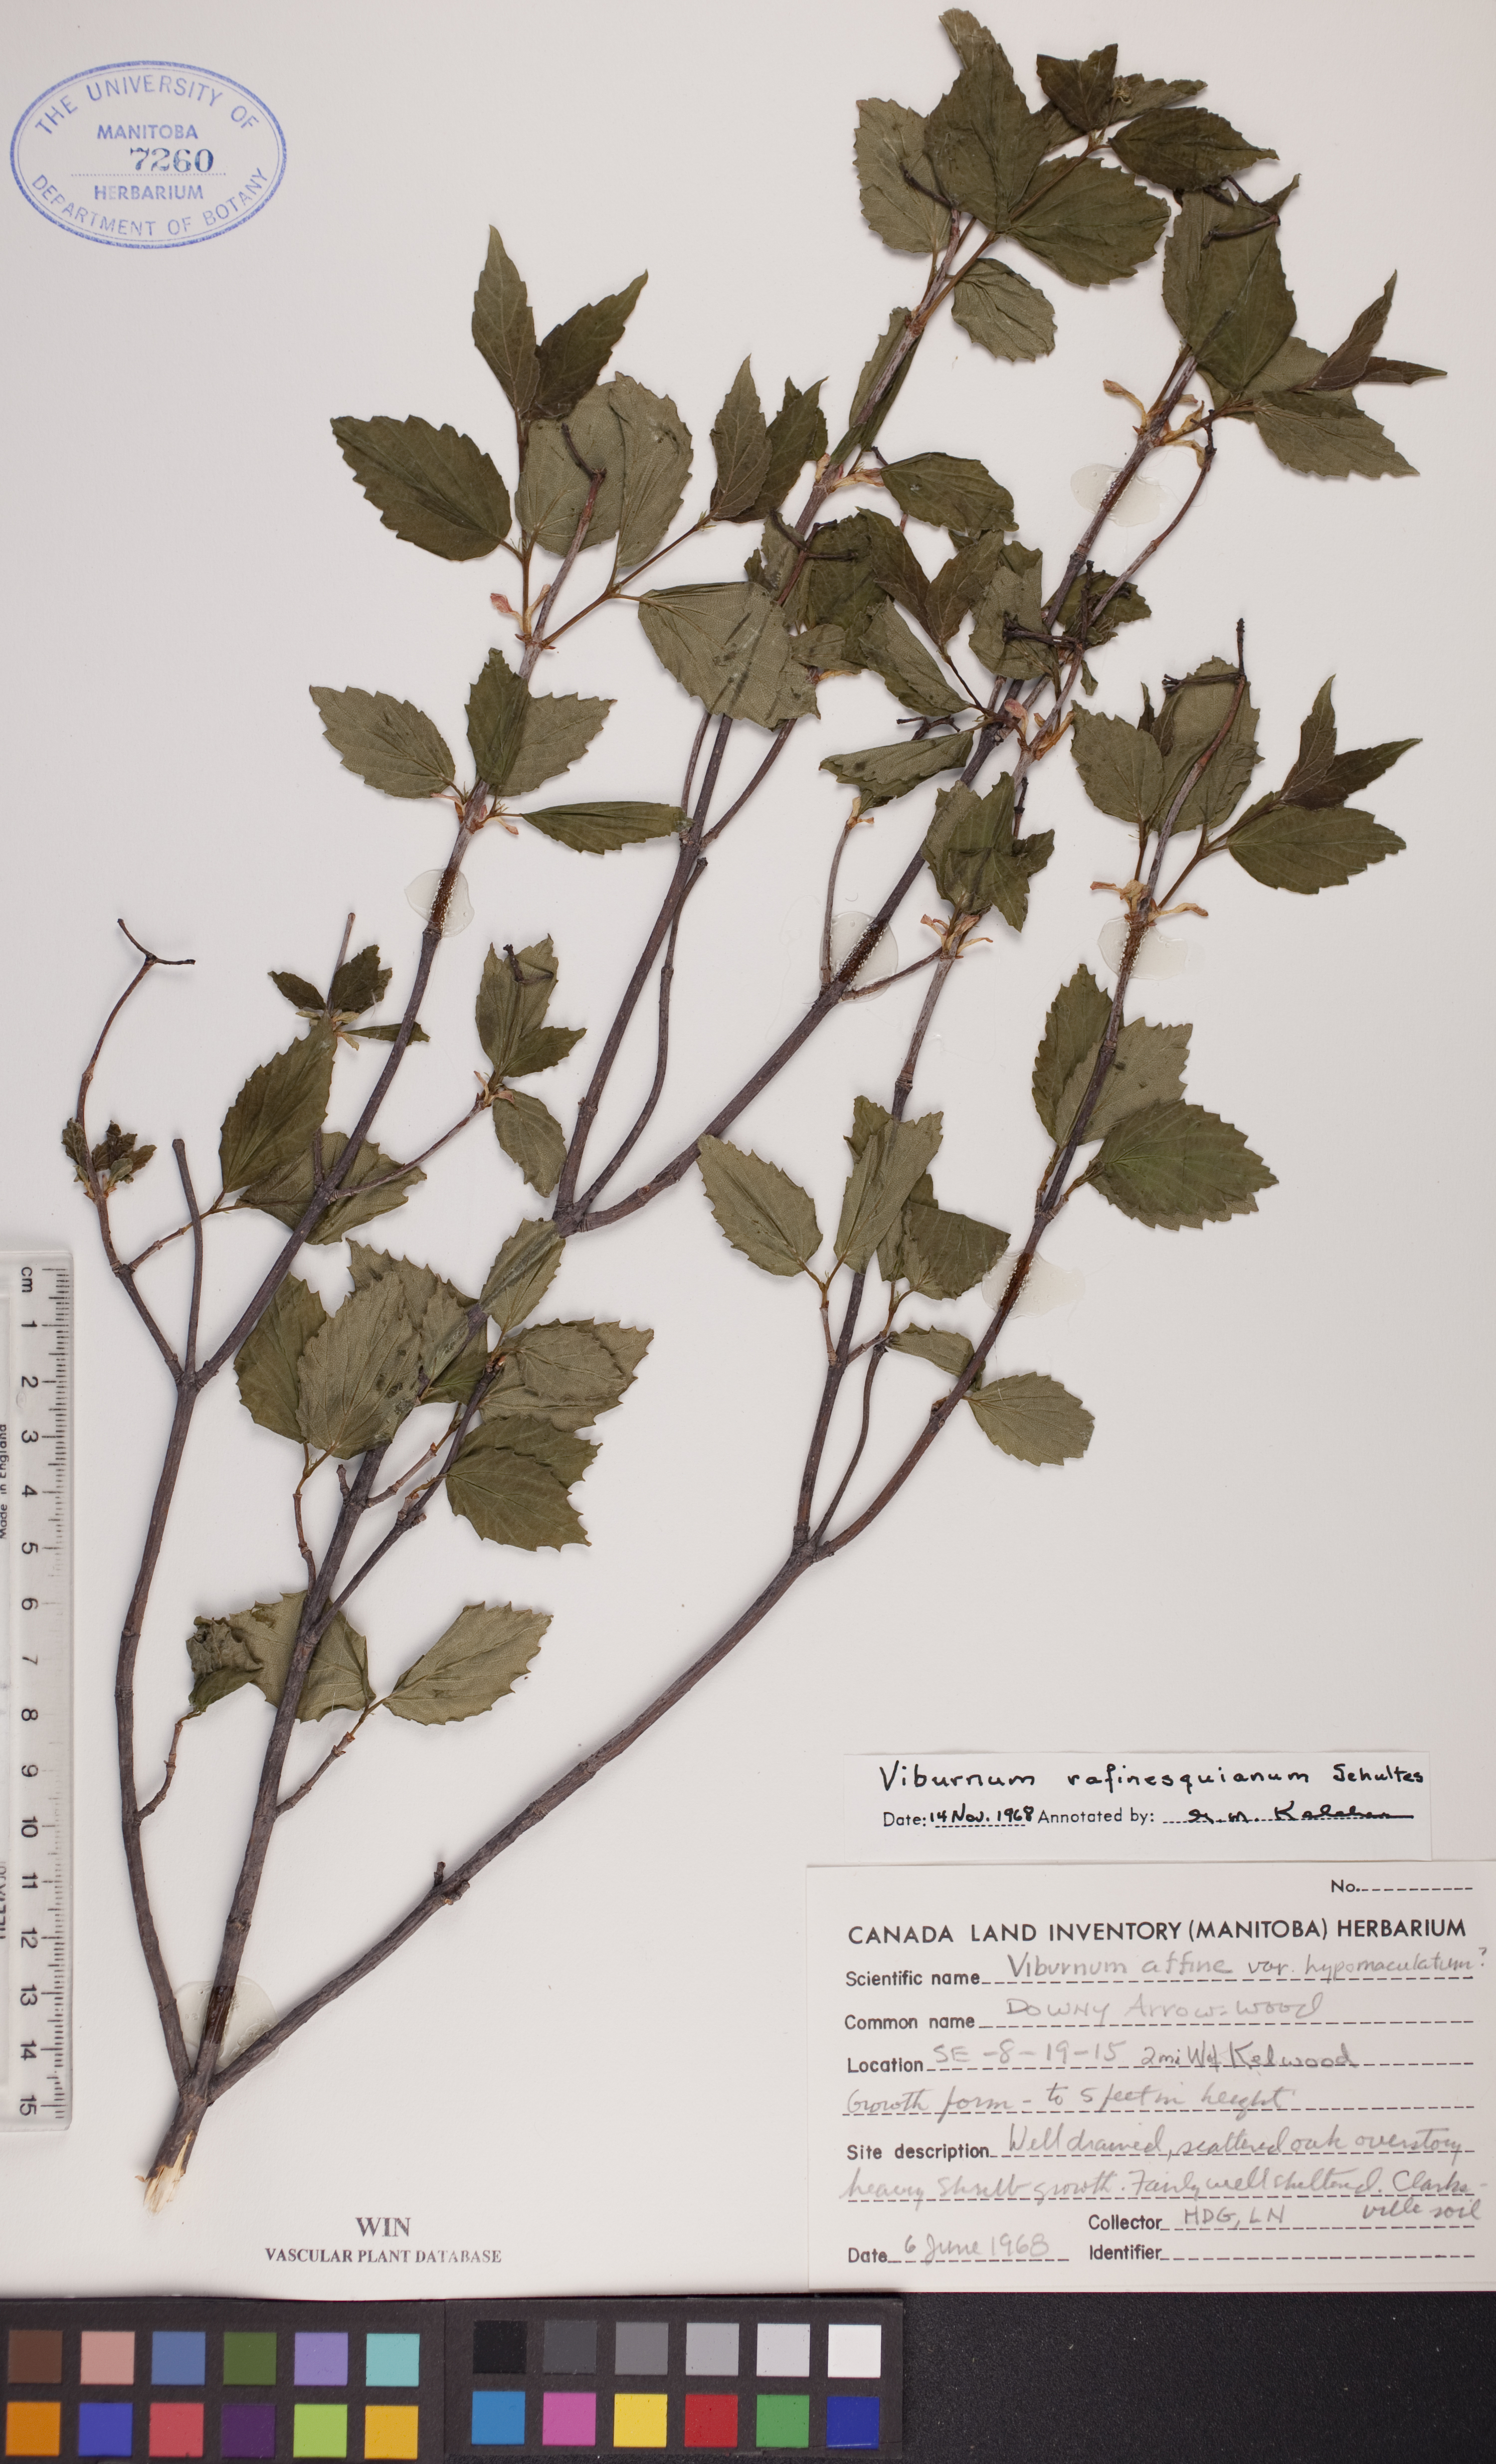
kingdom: Plantae
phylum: Tracheophyta
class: Magnoliopsida
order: Dipsacales
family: Viburnaceae
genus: Viburnum
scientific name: Viburnum rafinesquianum
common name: Downy arrow-wood
